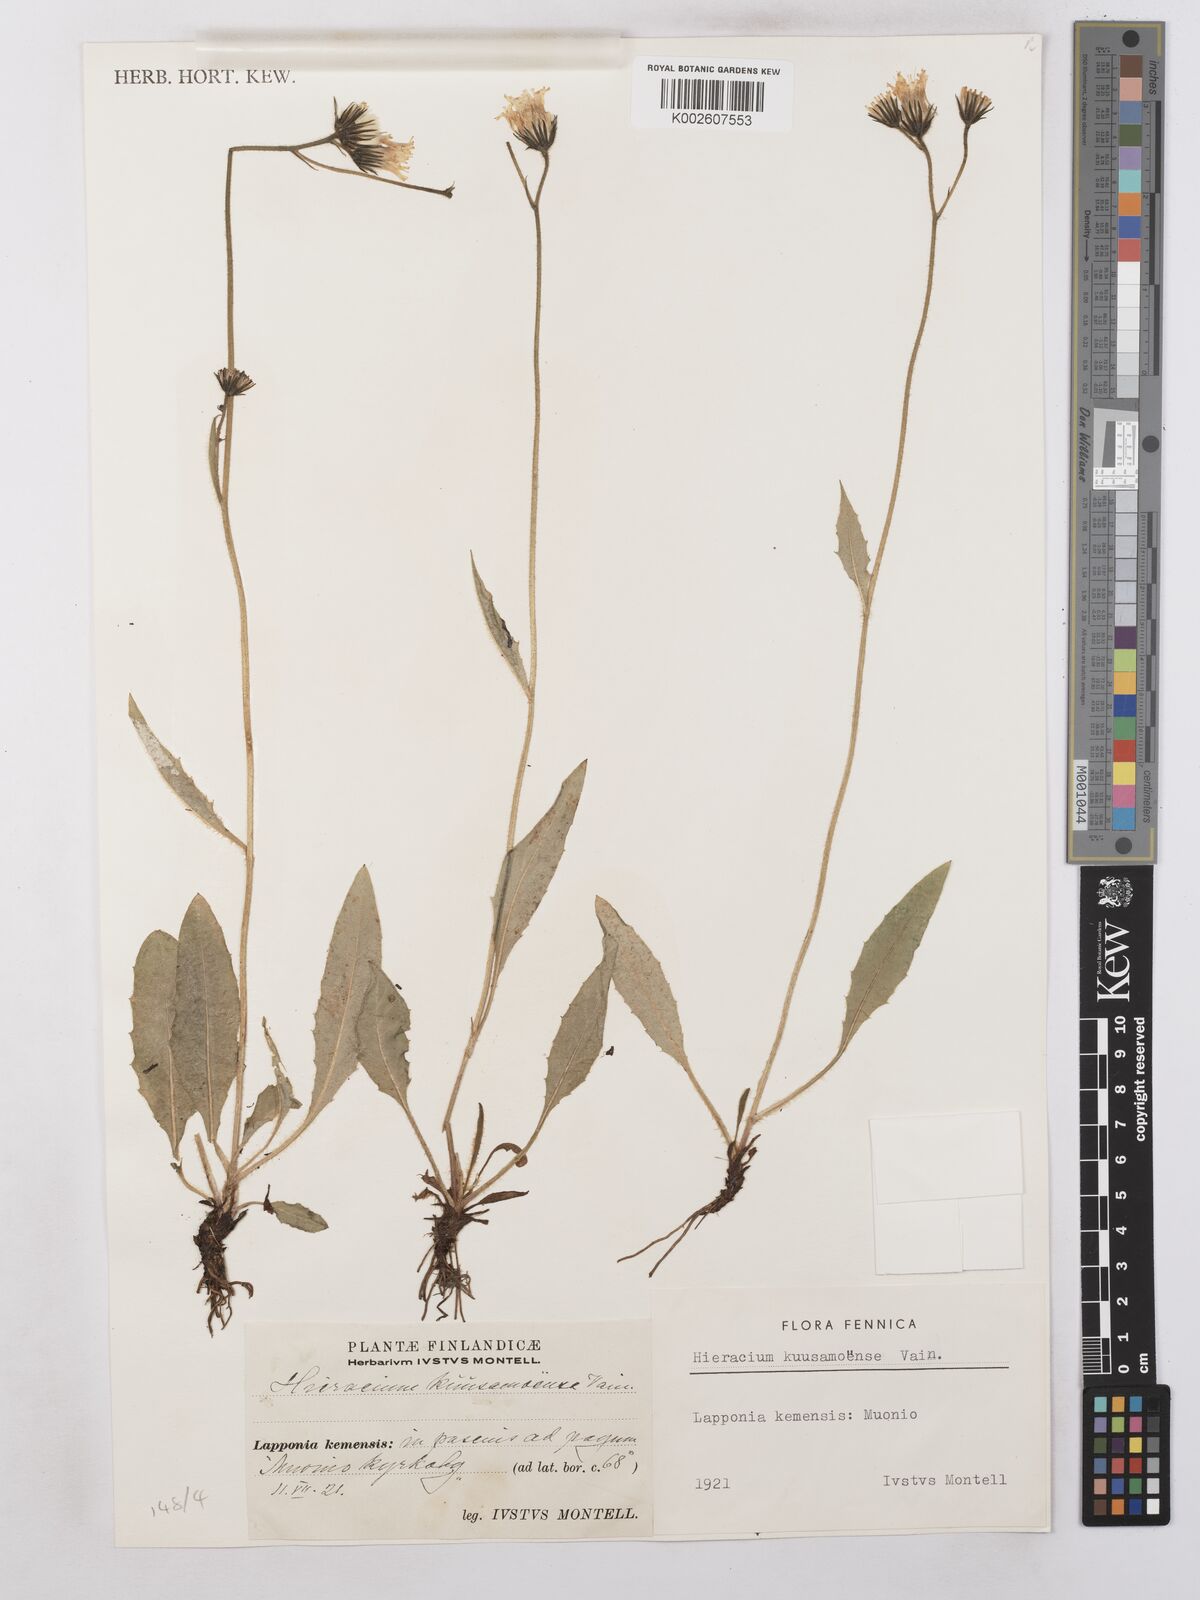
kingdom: Plantae
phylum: Tracheophyta
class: Magnoliopsida
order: Asterales
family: Asteraceae
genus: Hieracium
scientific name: Hieracium subramosum
